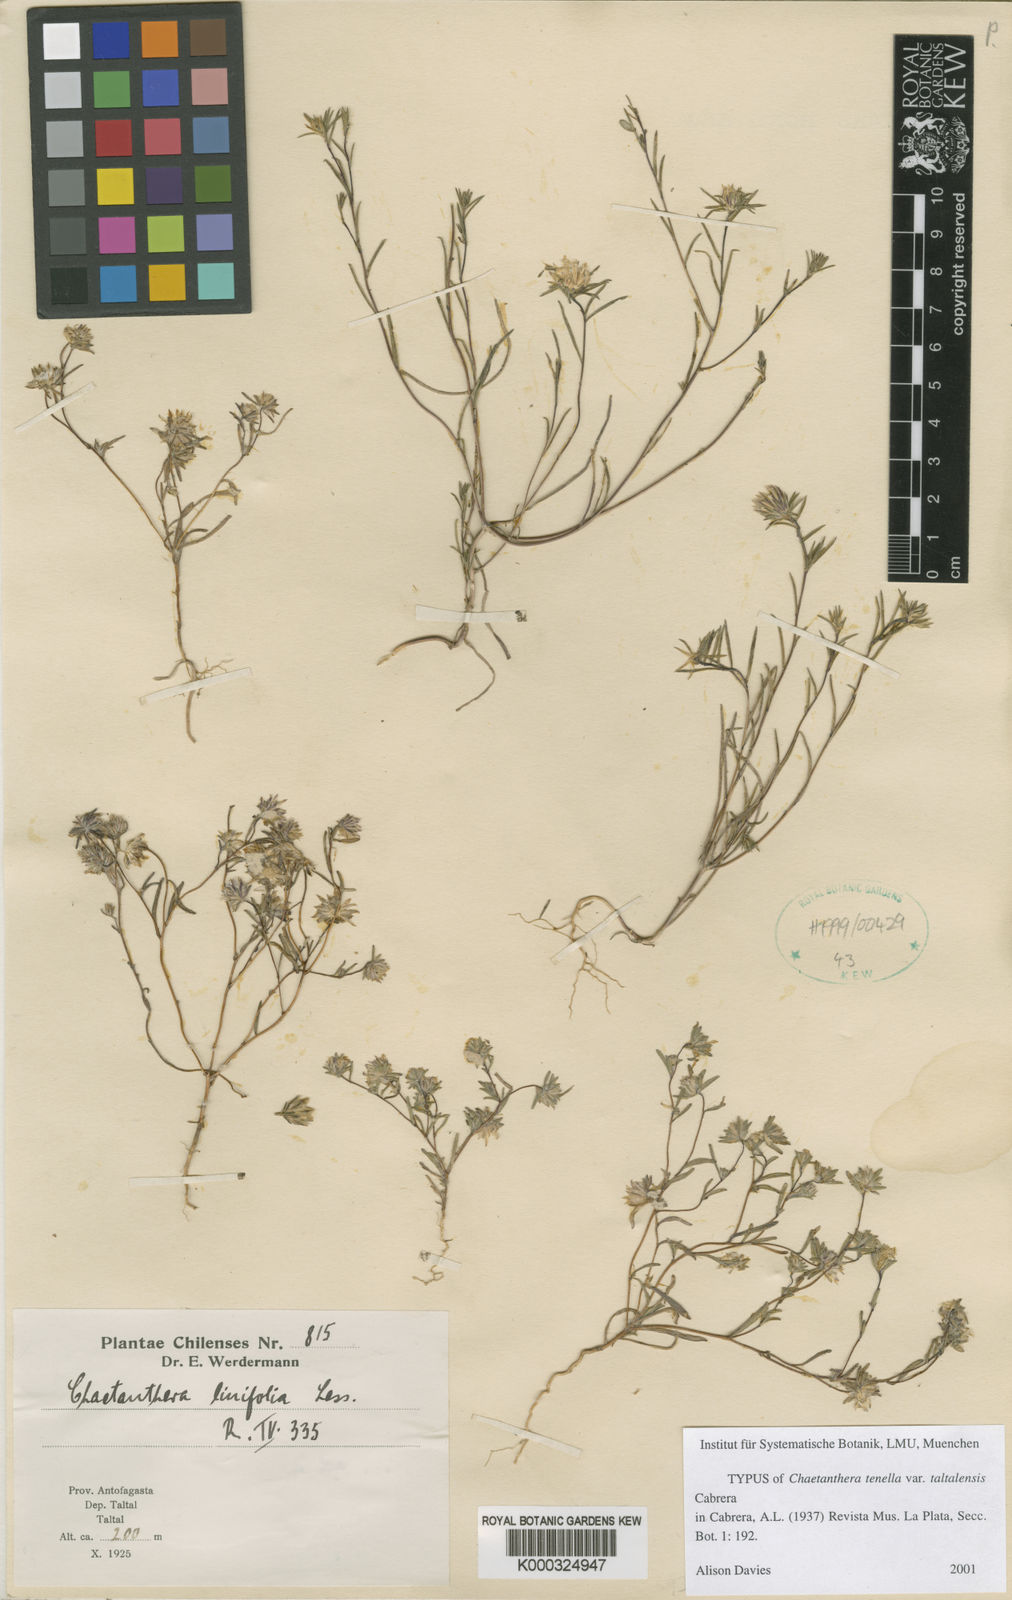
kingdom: Plantae
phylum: Tracheophyta
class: Magnoliopsida
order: Asterales
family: Asteraceae
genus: Chaetanthera
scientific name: Chaetanthera taltalensis
